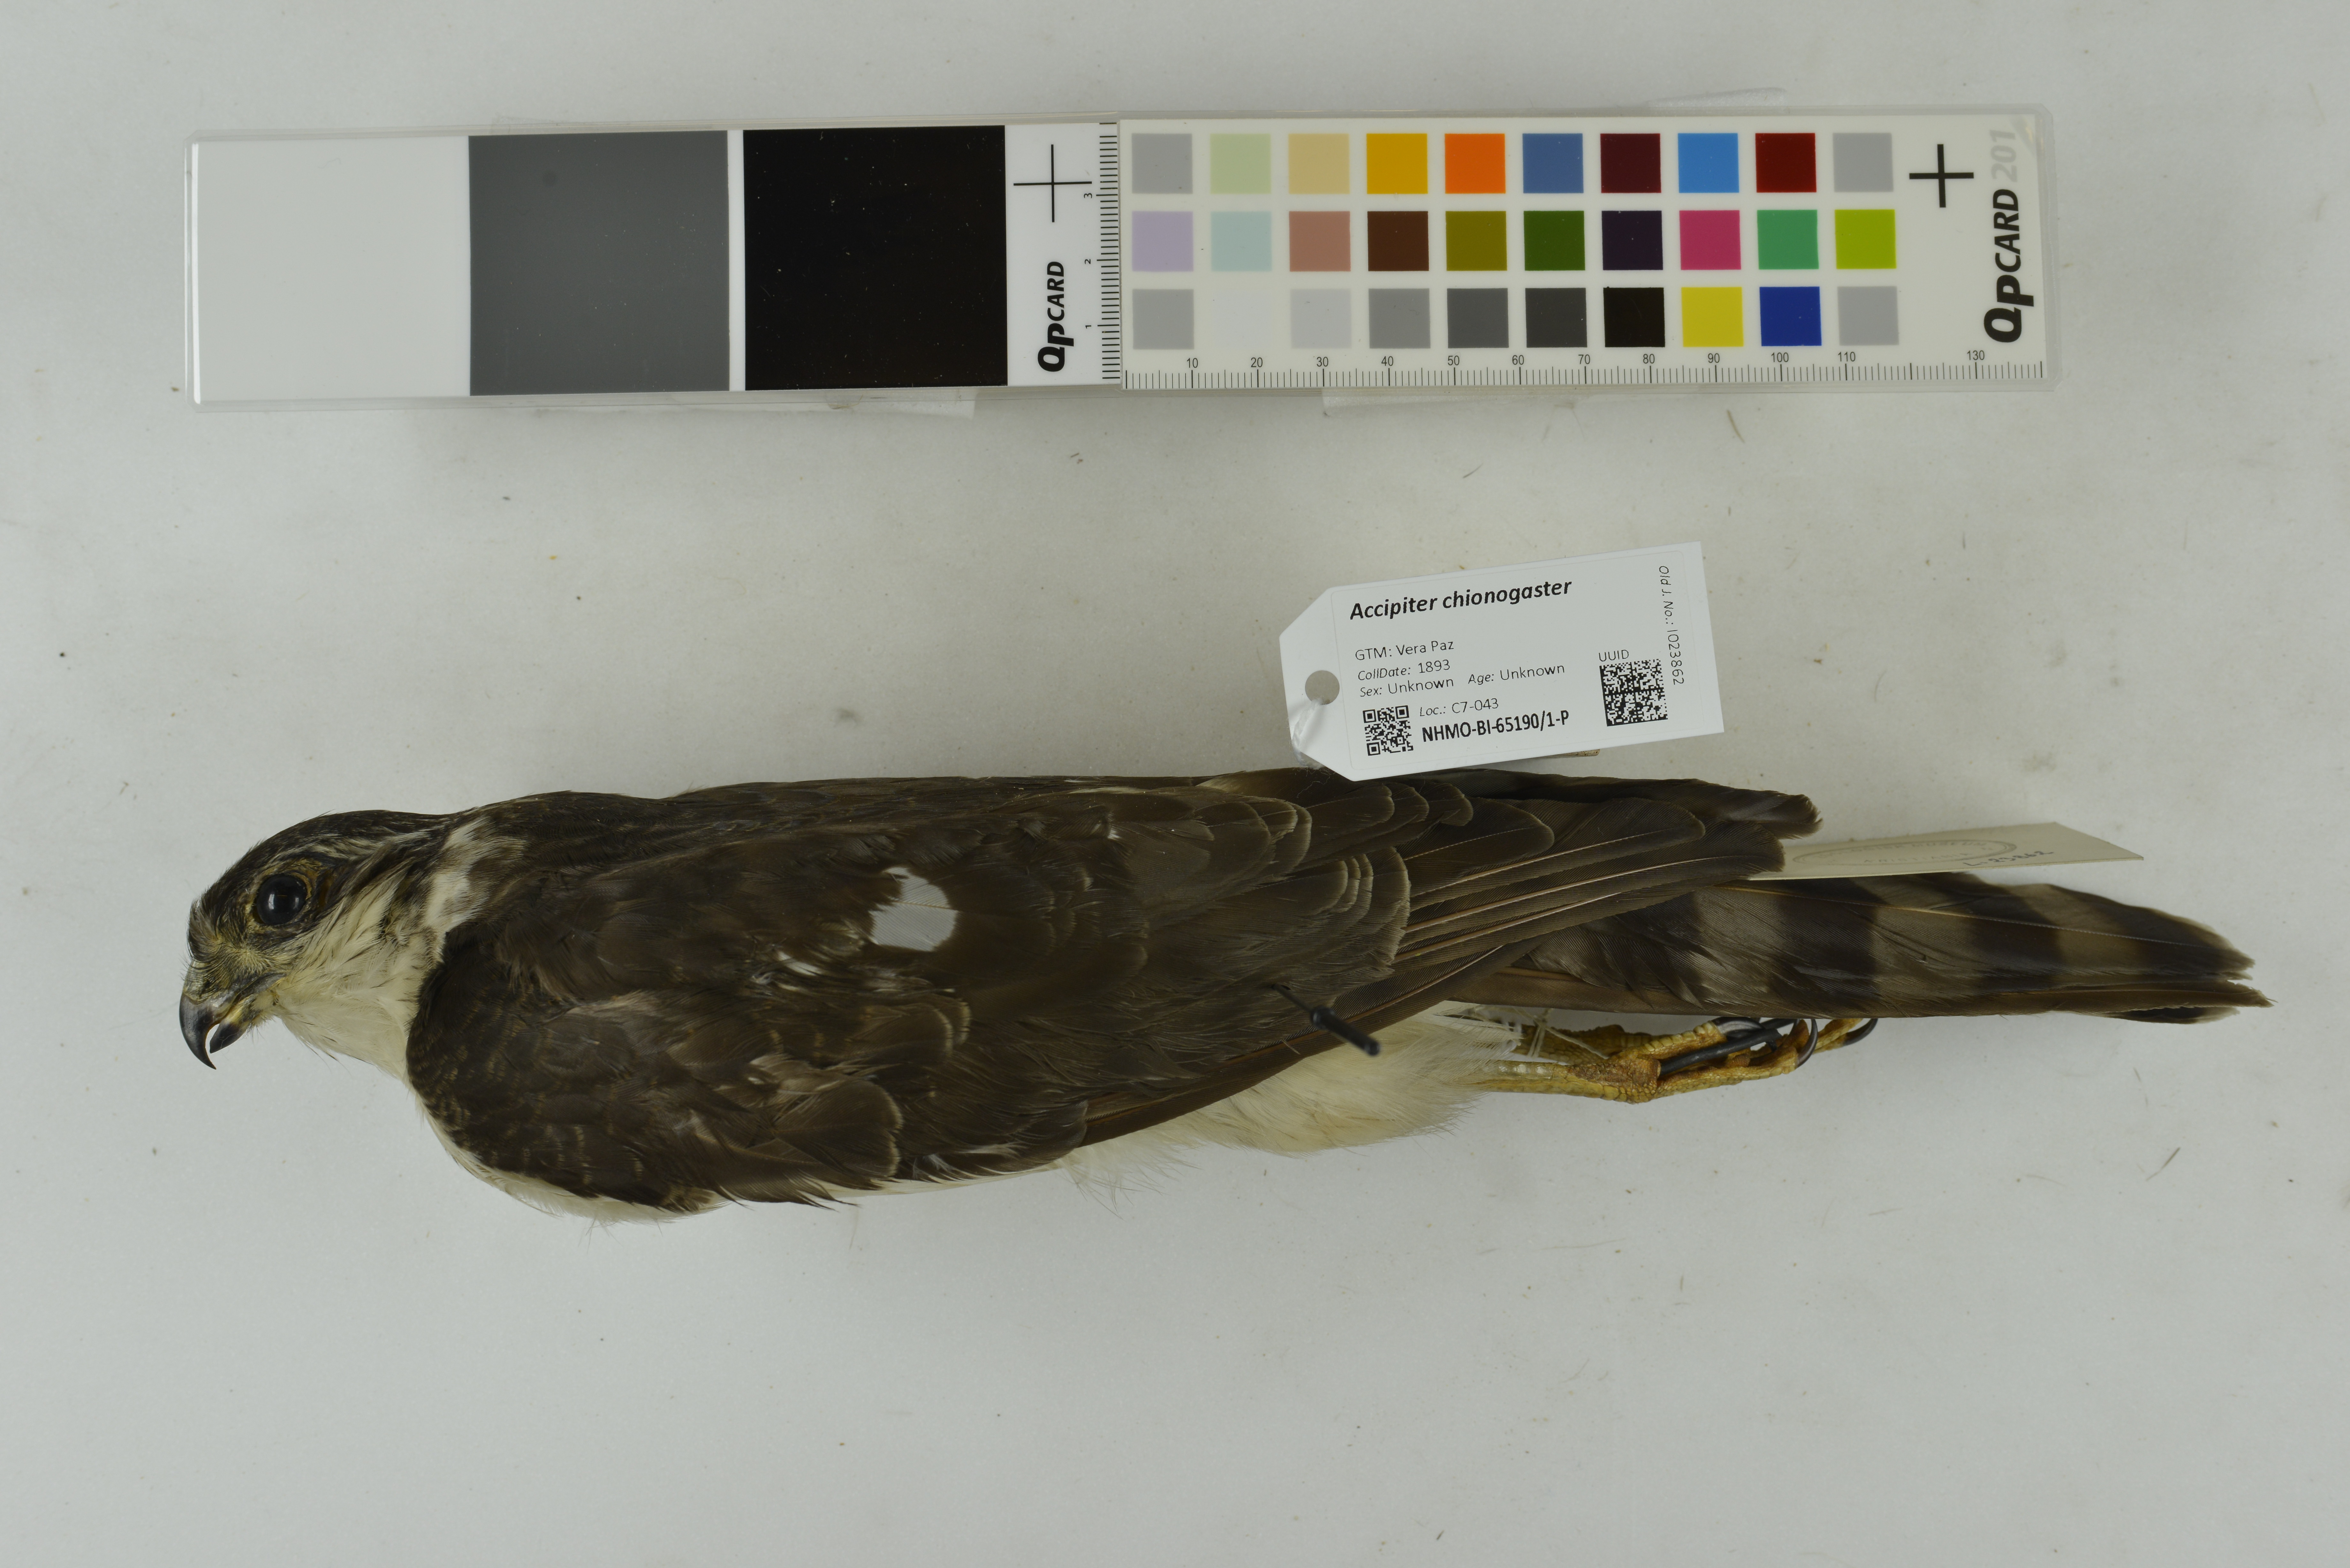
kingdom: Animalia
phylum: Chordata
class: Aves
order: Accipitriformes
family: Accipitridae
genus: Accipiter
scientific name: Accipiter chionogaster
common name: White-breasted hawk
